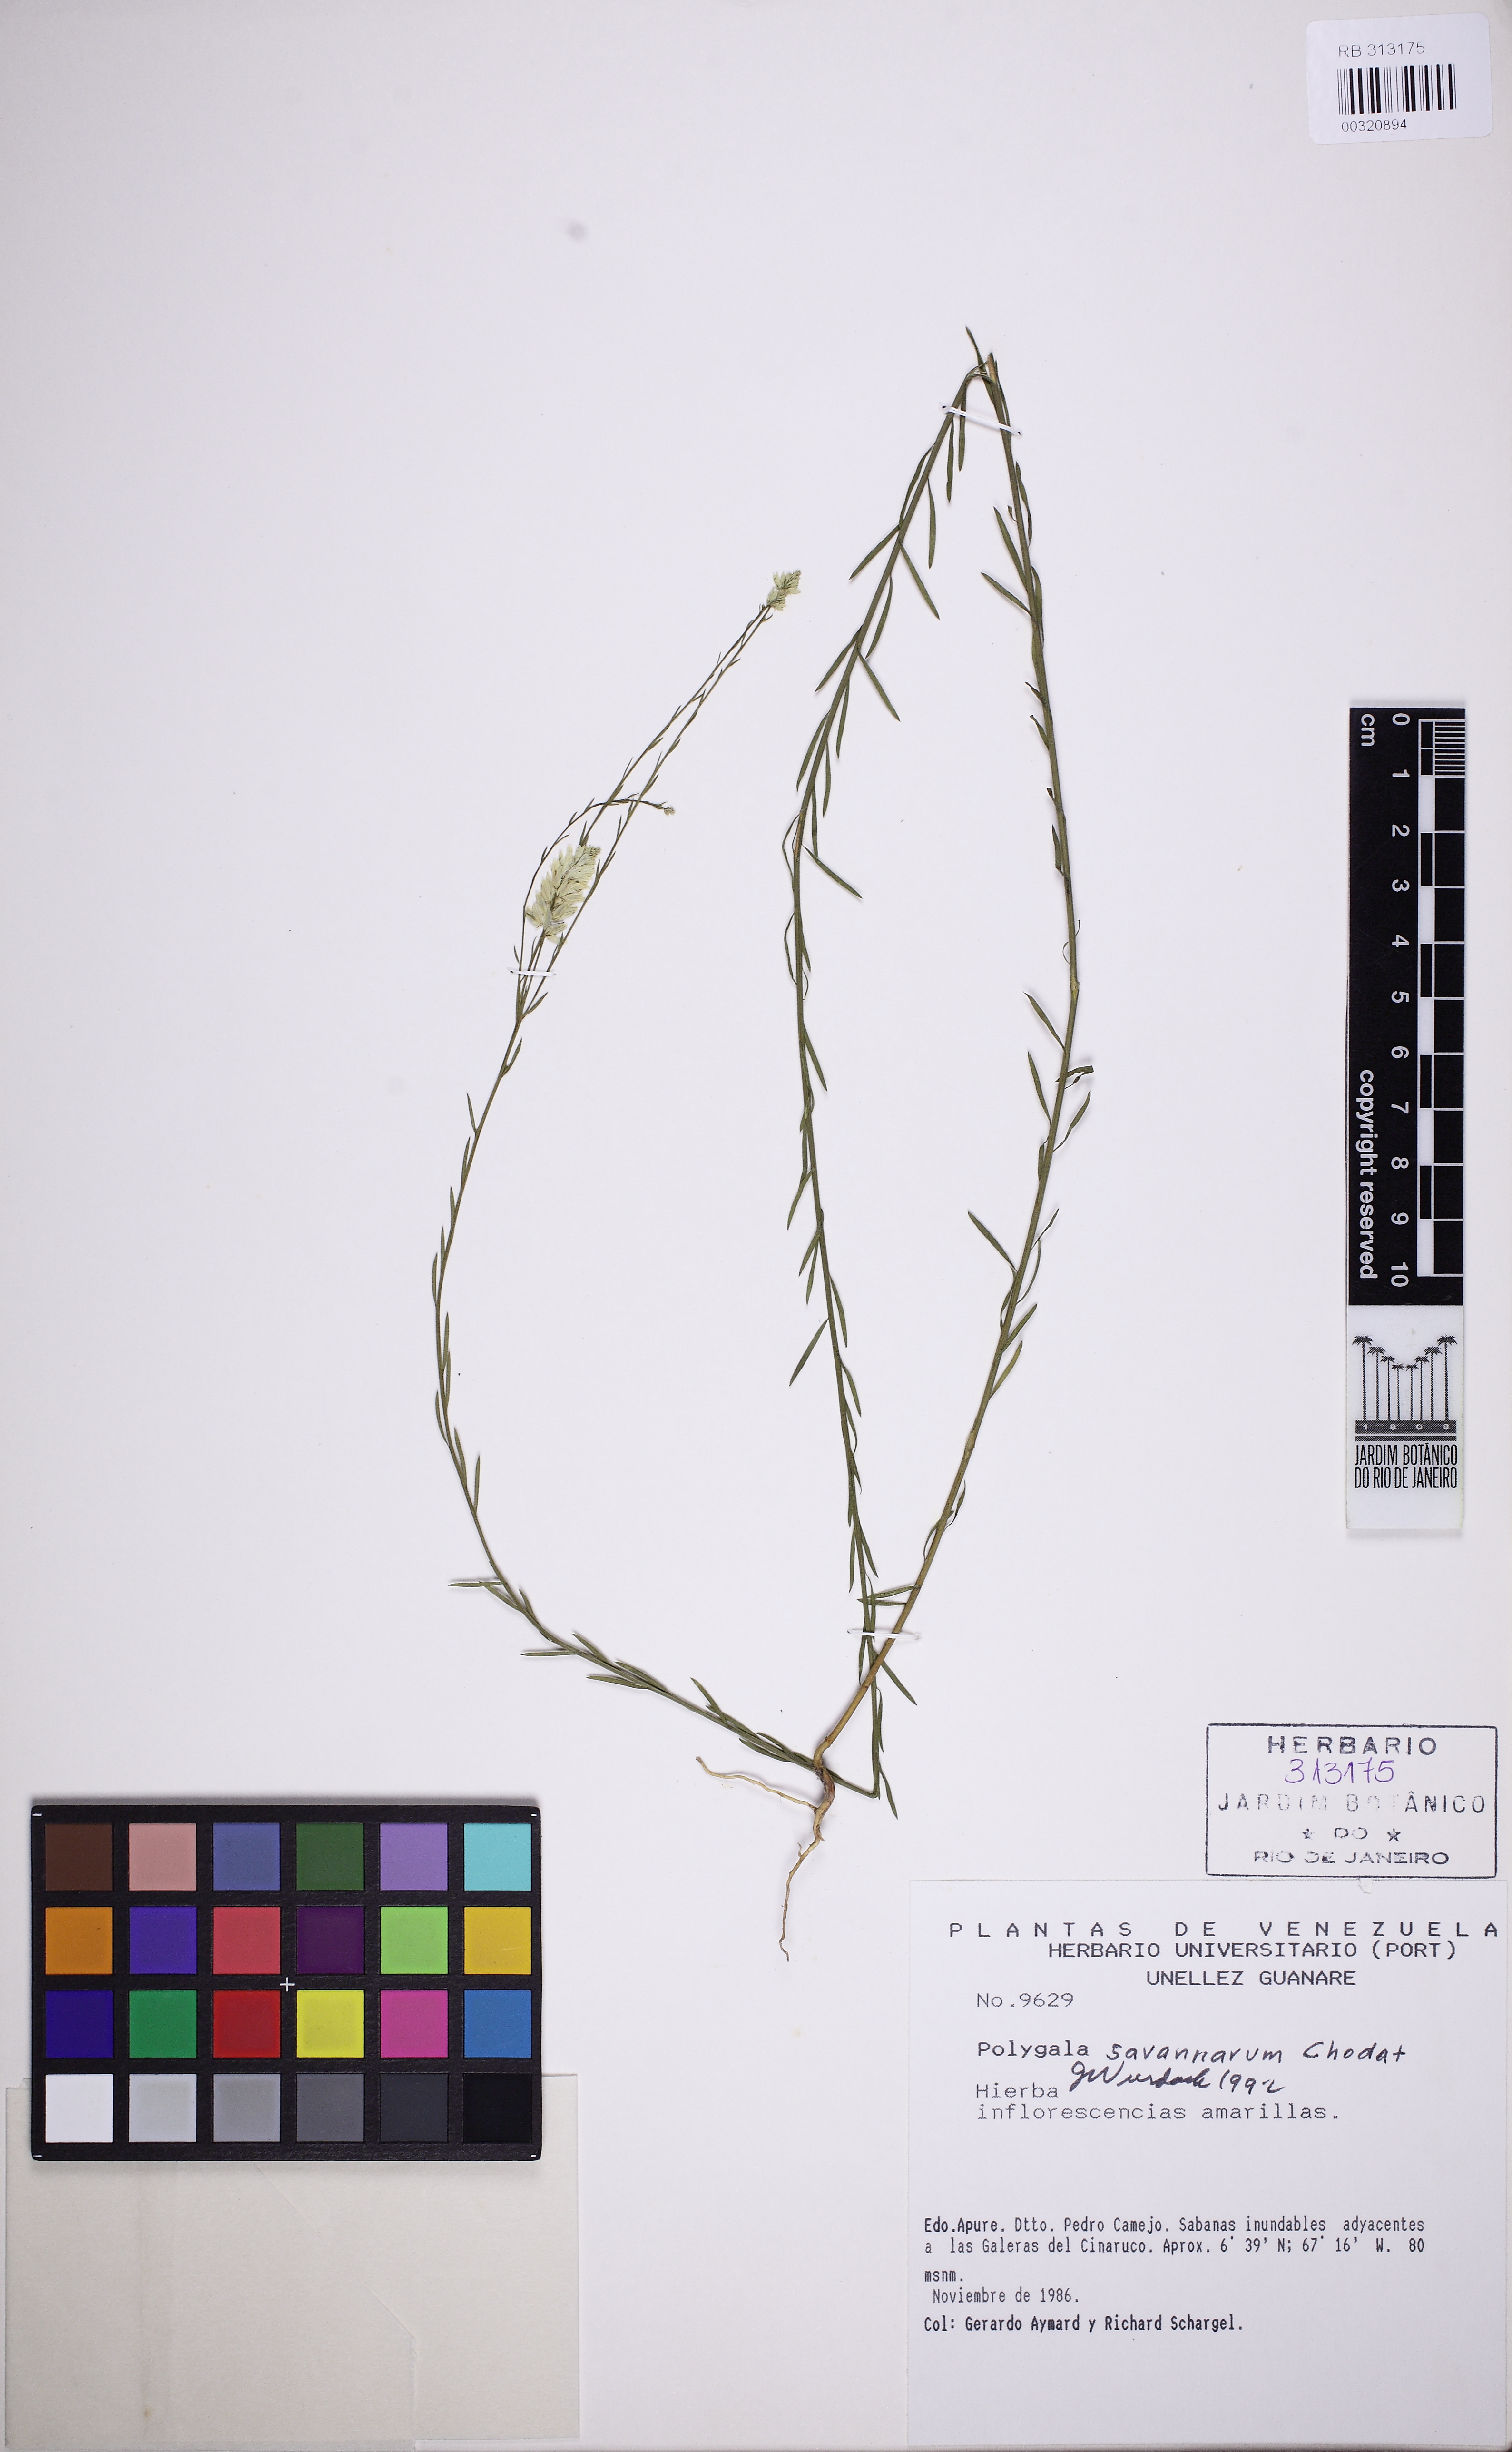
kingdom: Plantae
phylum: Tracheophyta
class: Magnoliopsida
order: Fabales
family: Polygalaceae
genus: Polygala
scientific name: Polygala savannarum
